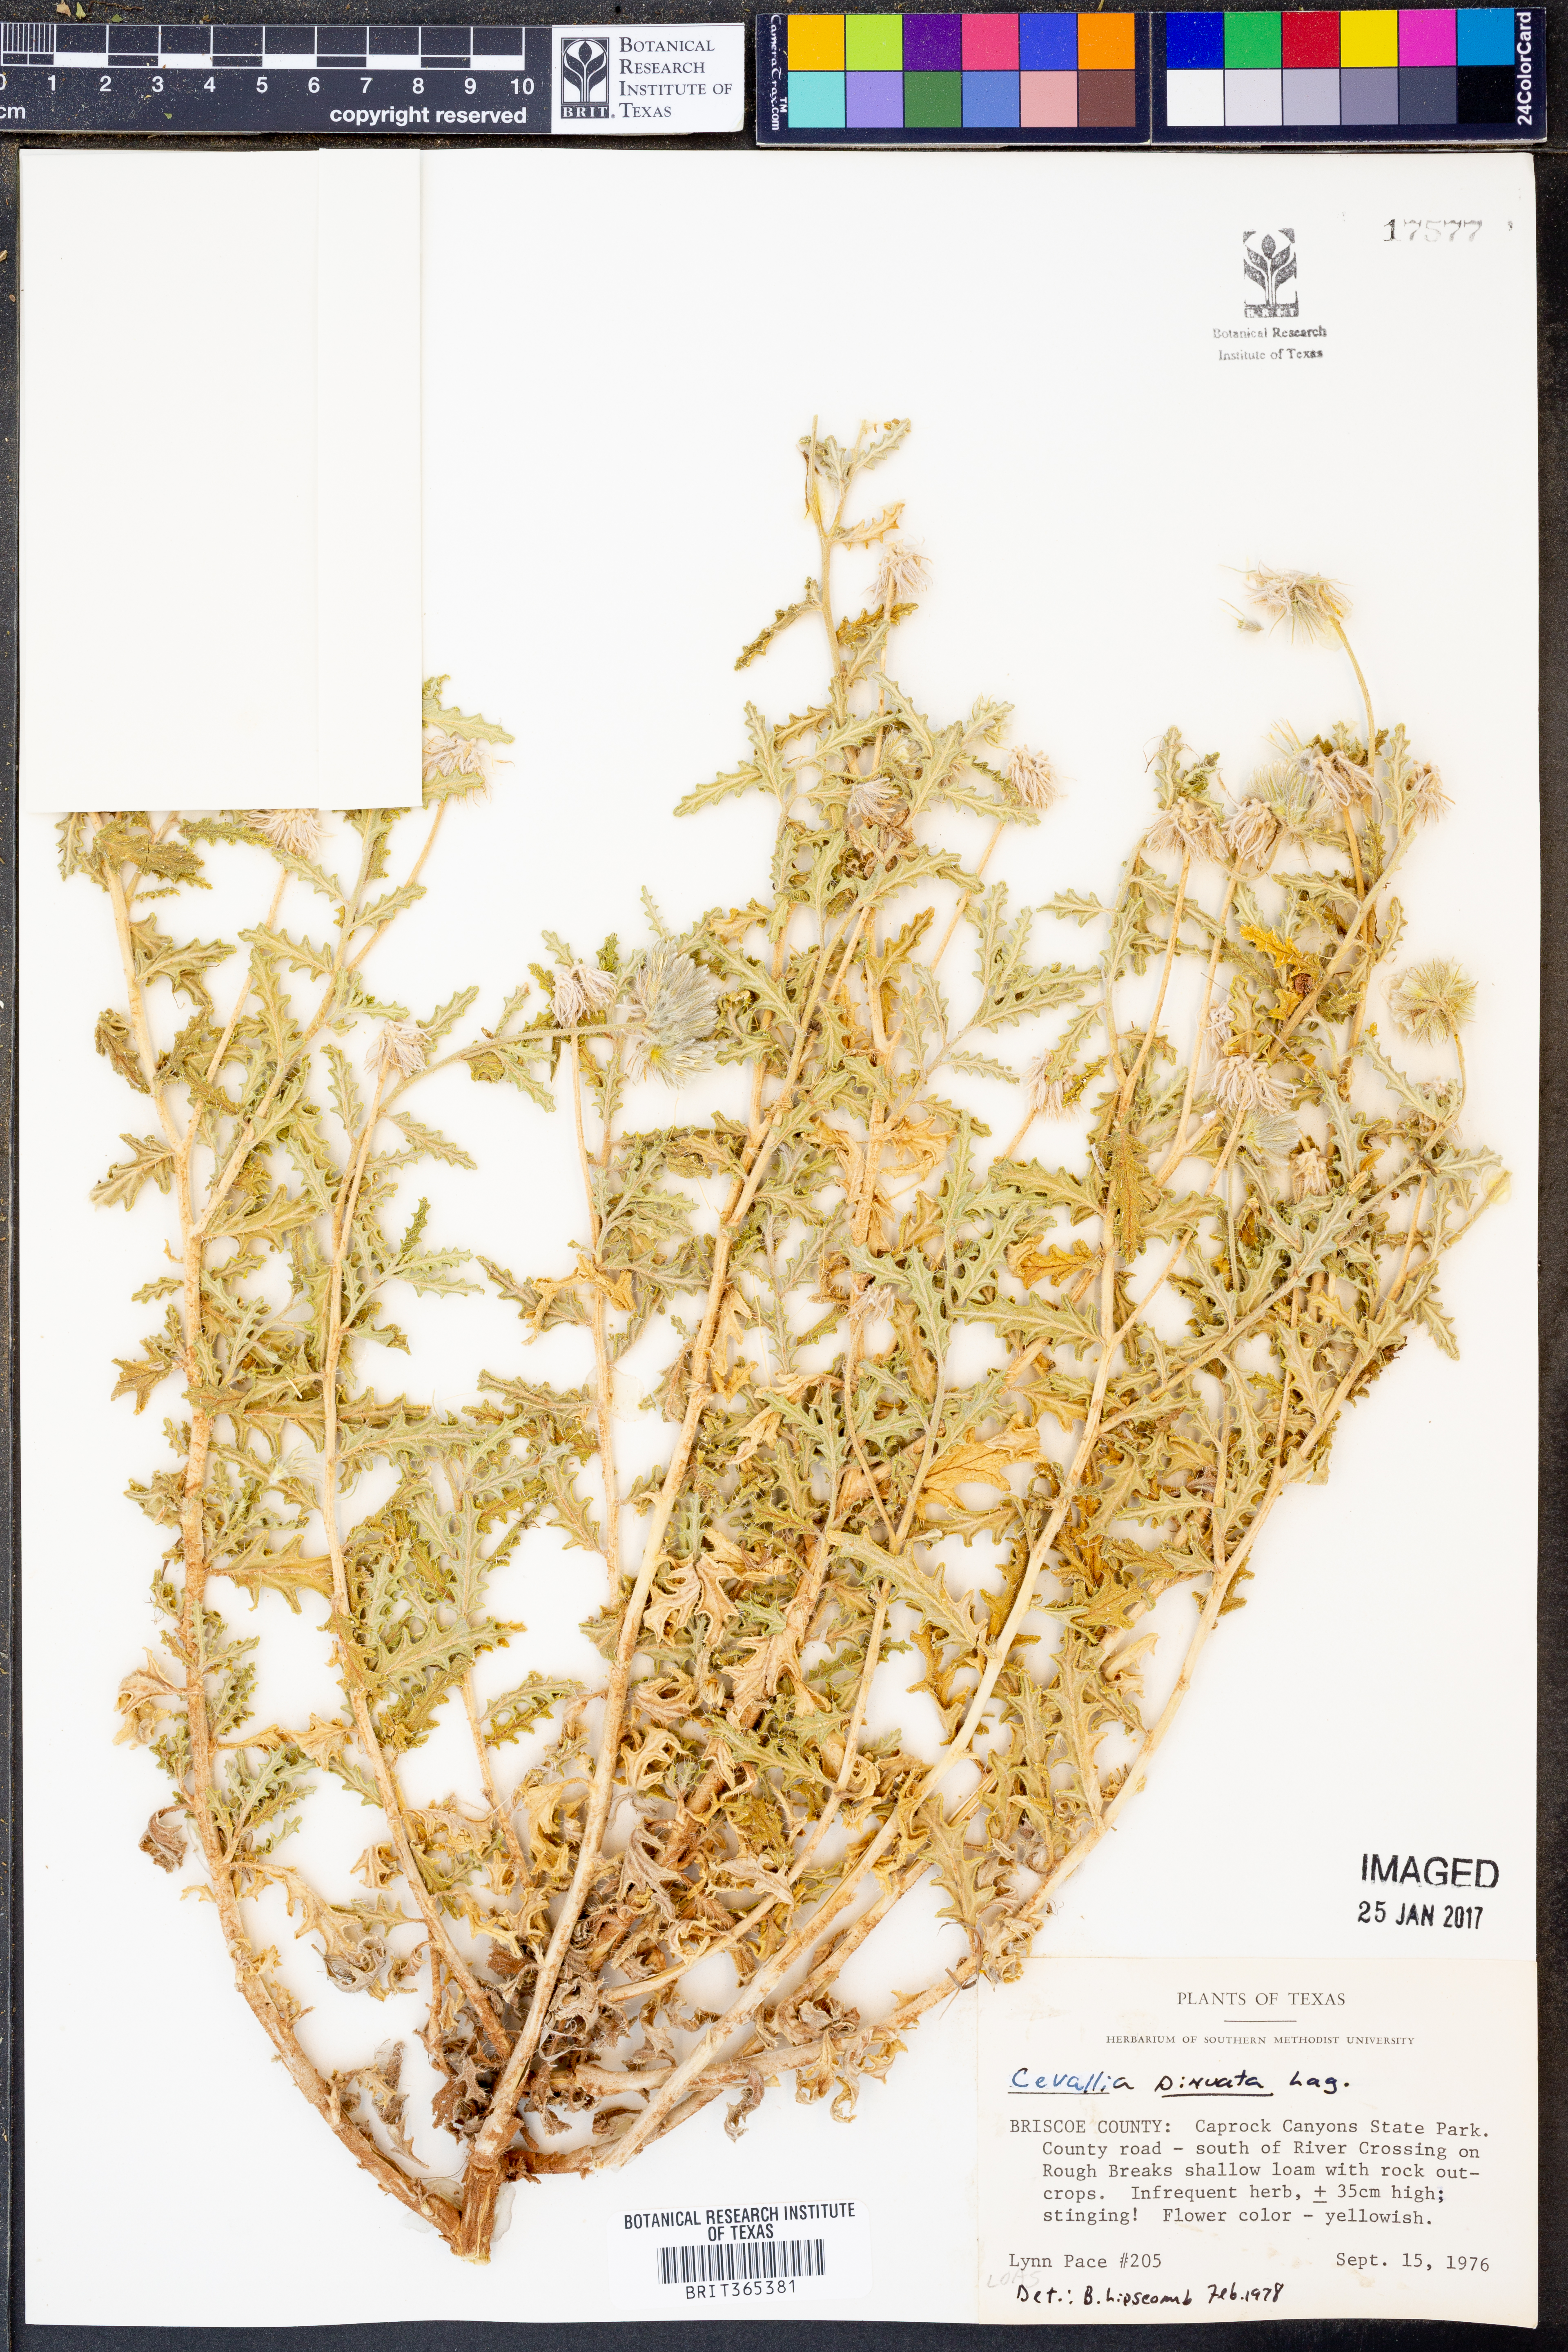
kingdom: Plantae
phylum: Tracheophyta
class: Magnoliopsida
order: Cornales
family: Loasaceae
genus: Cevallia
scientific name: Cevallia sinuata
